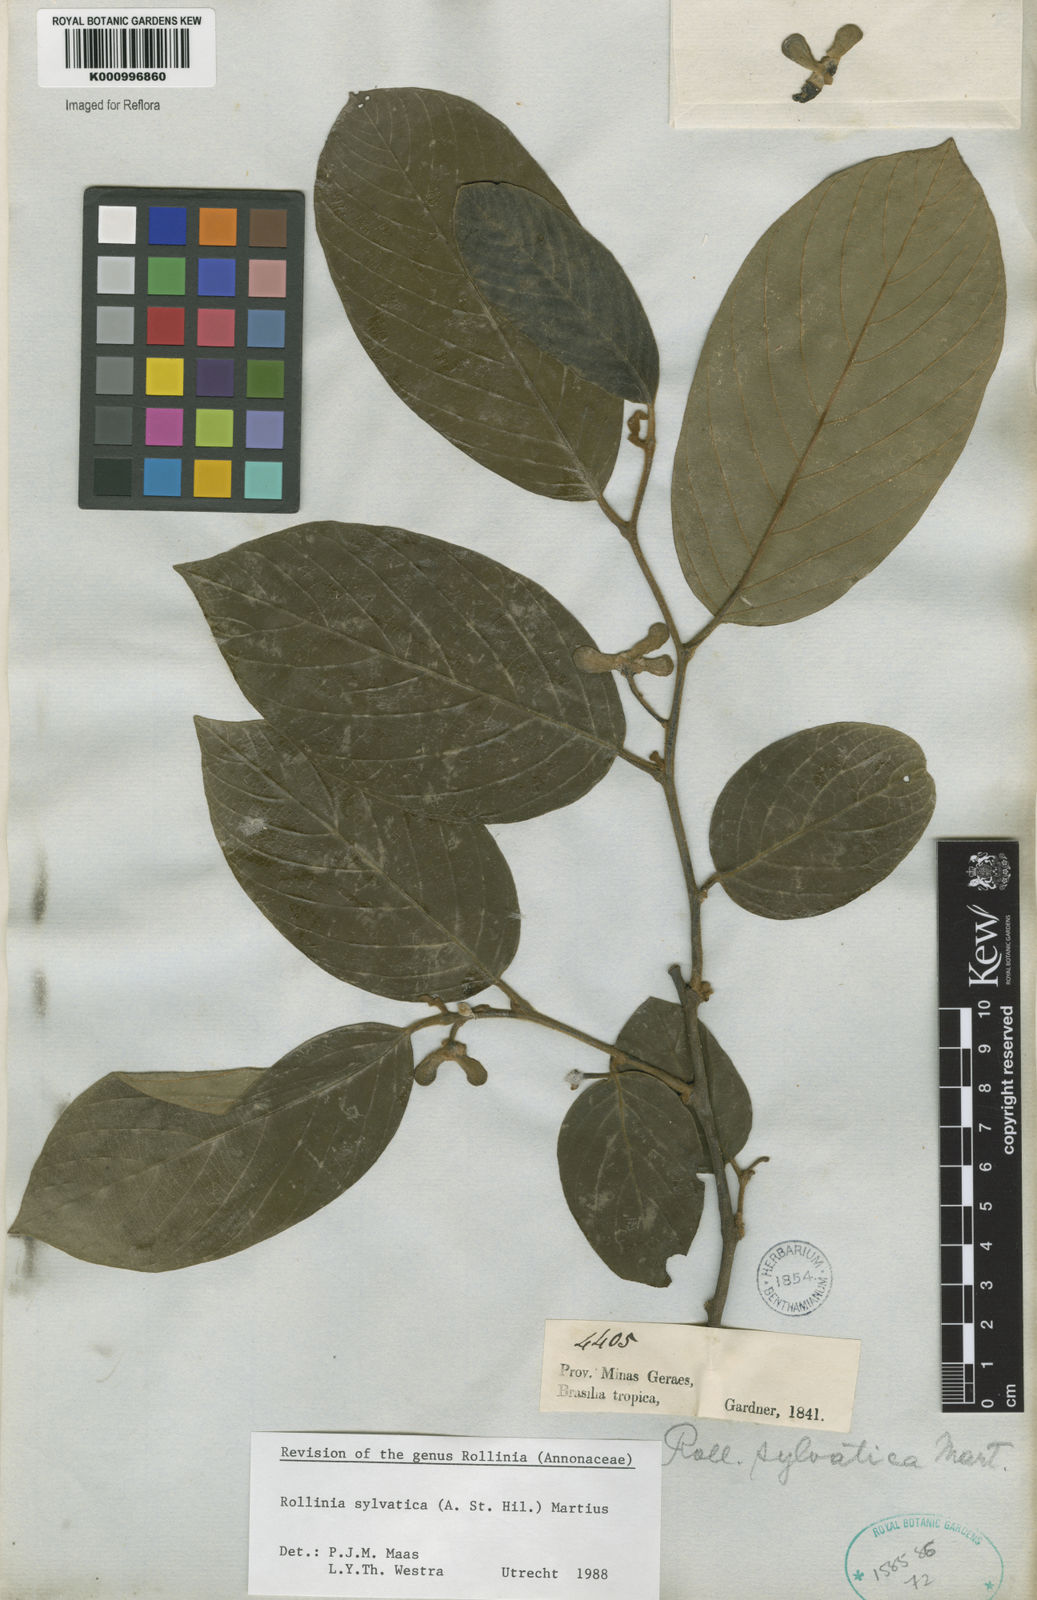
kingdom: Plantae
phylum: Tracheophyta
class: Magnoliopsida
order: Magnoliales
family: Annonaceae
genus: Annona
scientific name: Annona sylvatica
